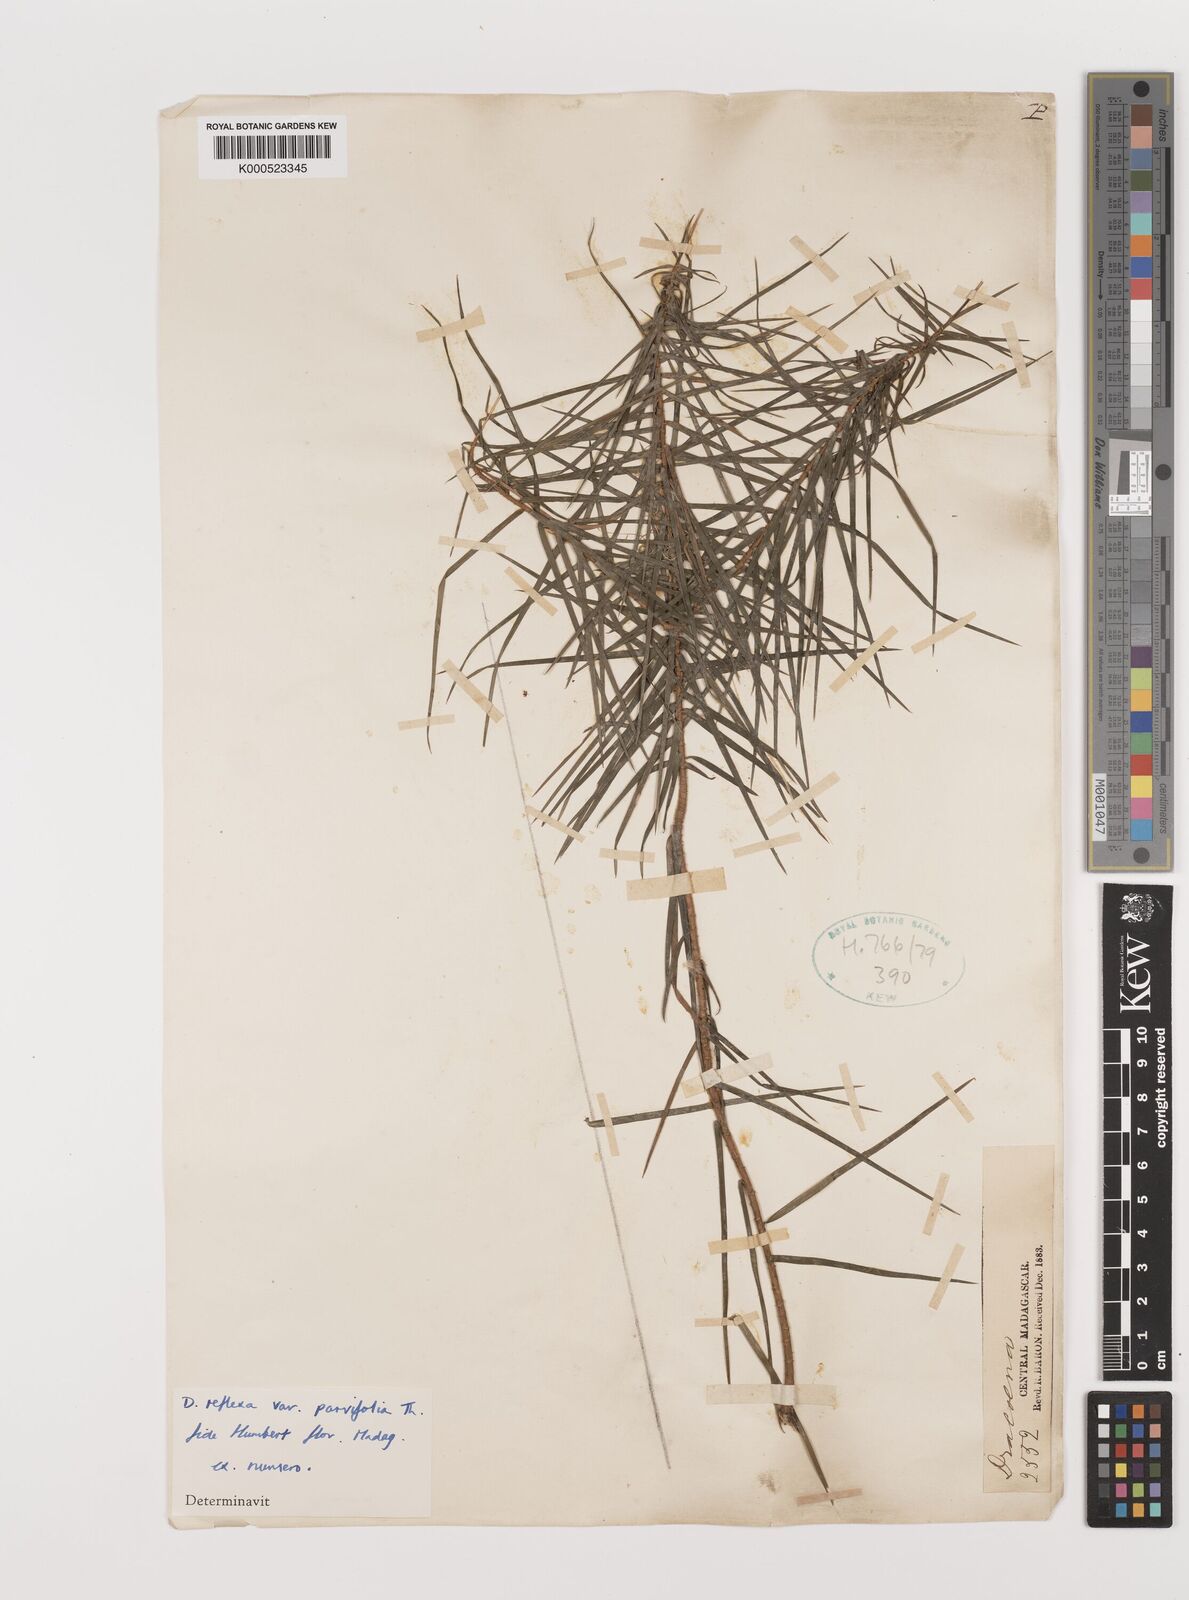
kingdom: Plantae
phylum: Tracheophyta
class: Liliopsida
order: Asparagales
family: Asparagaceae
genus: Dracaena
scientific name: Dracaena reflexa
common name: Song-of-india
